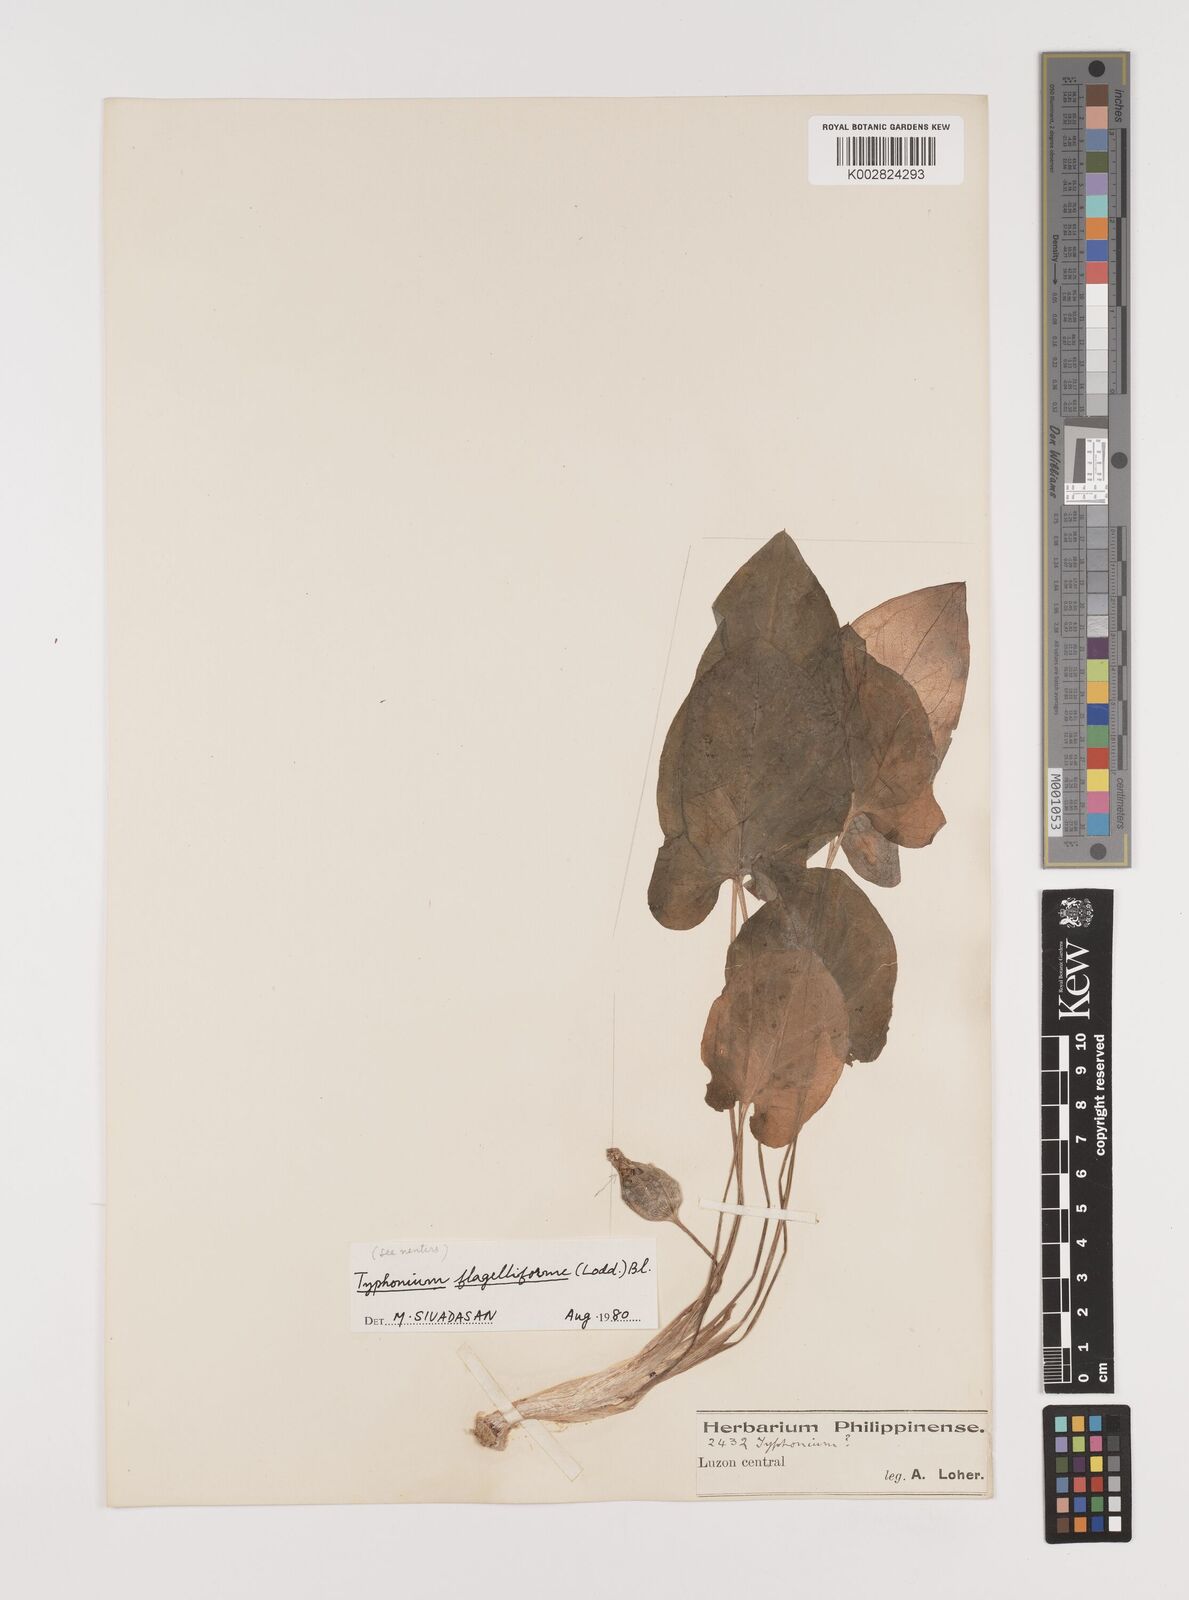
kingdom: Plantae
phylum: Tracheophyta
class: Liliopsida
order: Alismatales
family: Araceae
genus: Typhonium
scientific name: Typhonium flagelliforme
